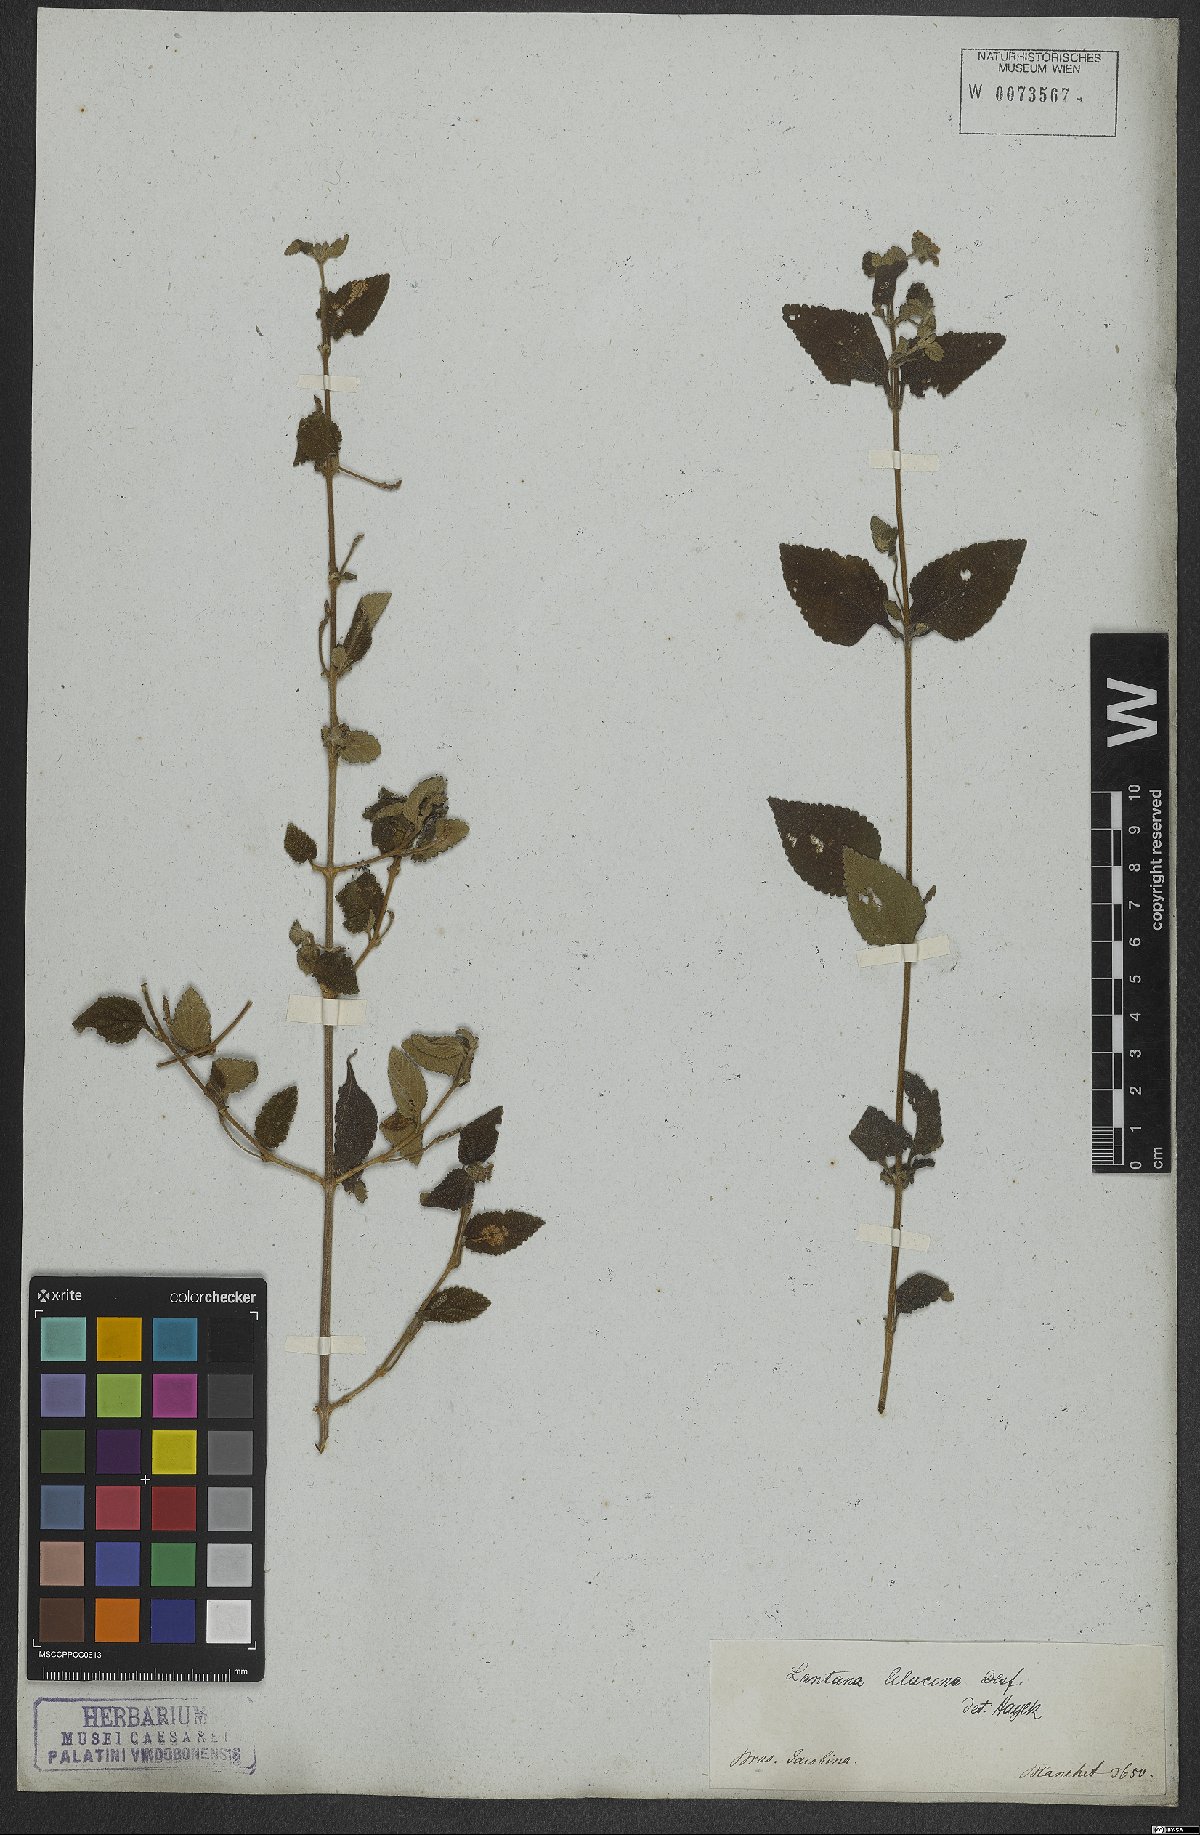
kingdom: Plantae
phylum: Tracheophyta
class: Magnoliopsida
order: Lamiales
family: Verbenaceae
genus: Lantana
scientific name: Lantana fucata
